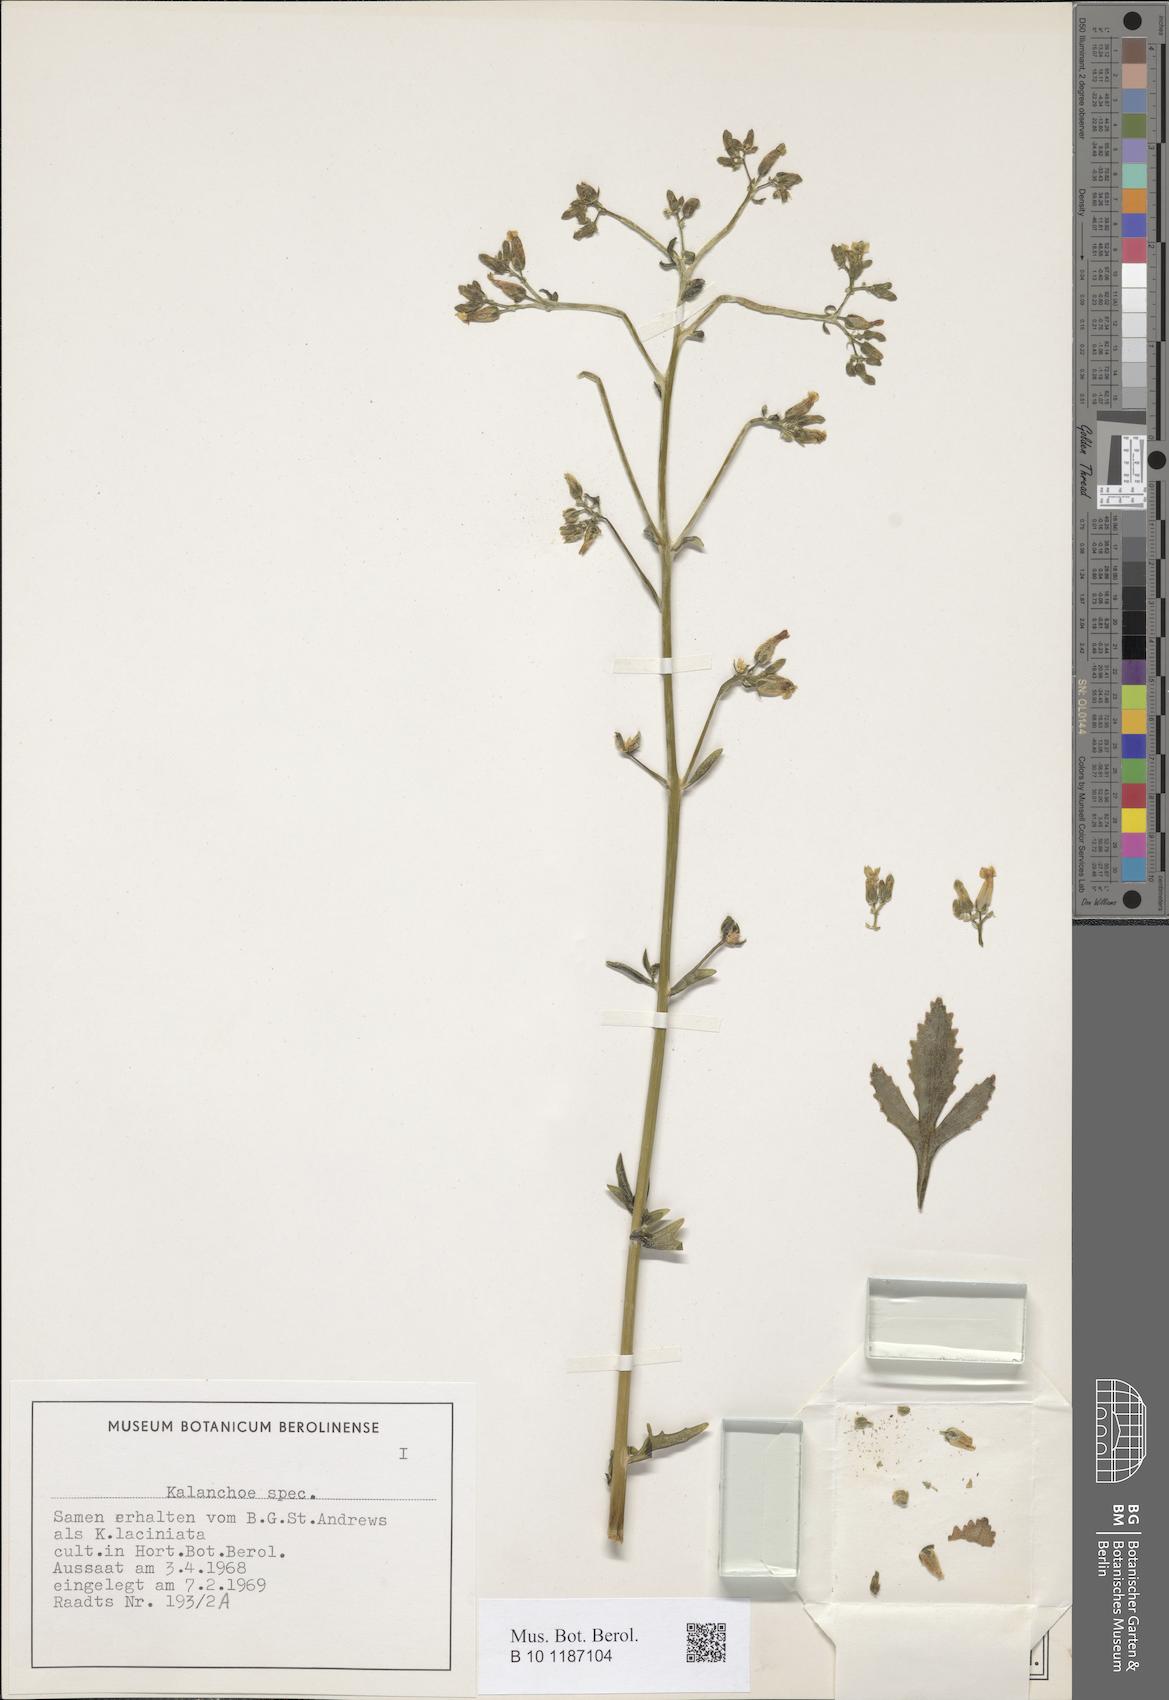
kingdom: Plantae
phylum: Tracheophyta
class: Magnoliopsida
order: Saxifragales
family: Crassulaceae
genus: Kalanchoe
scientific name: Kalanchoe
